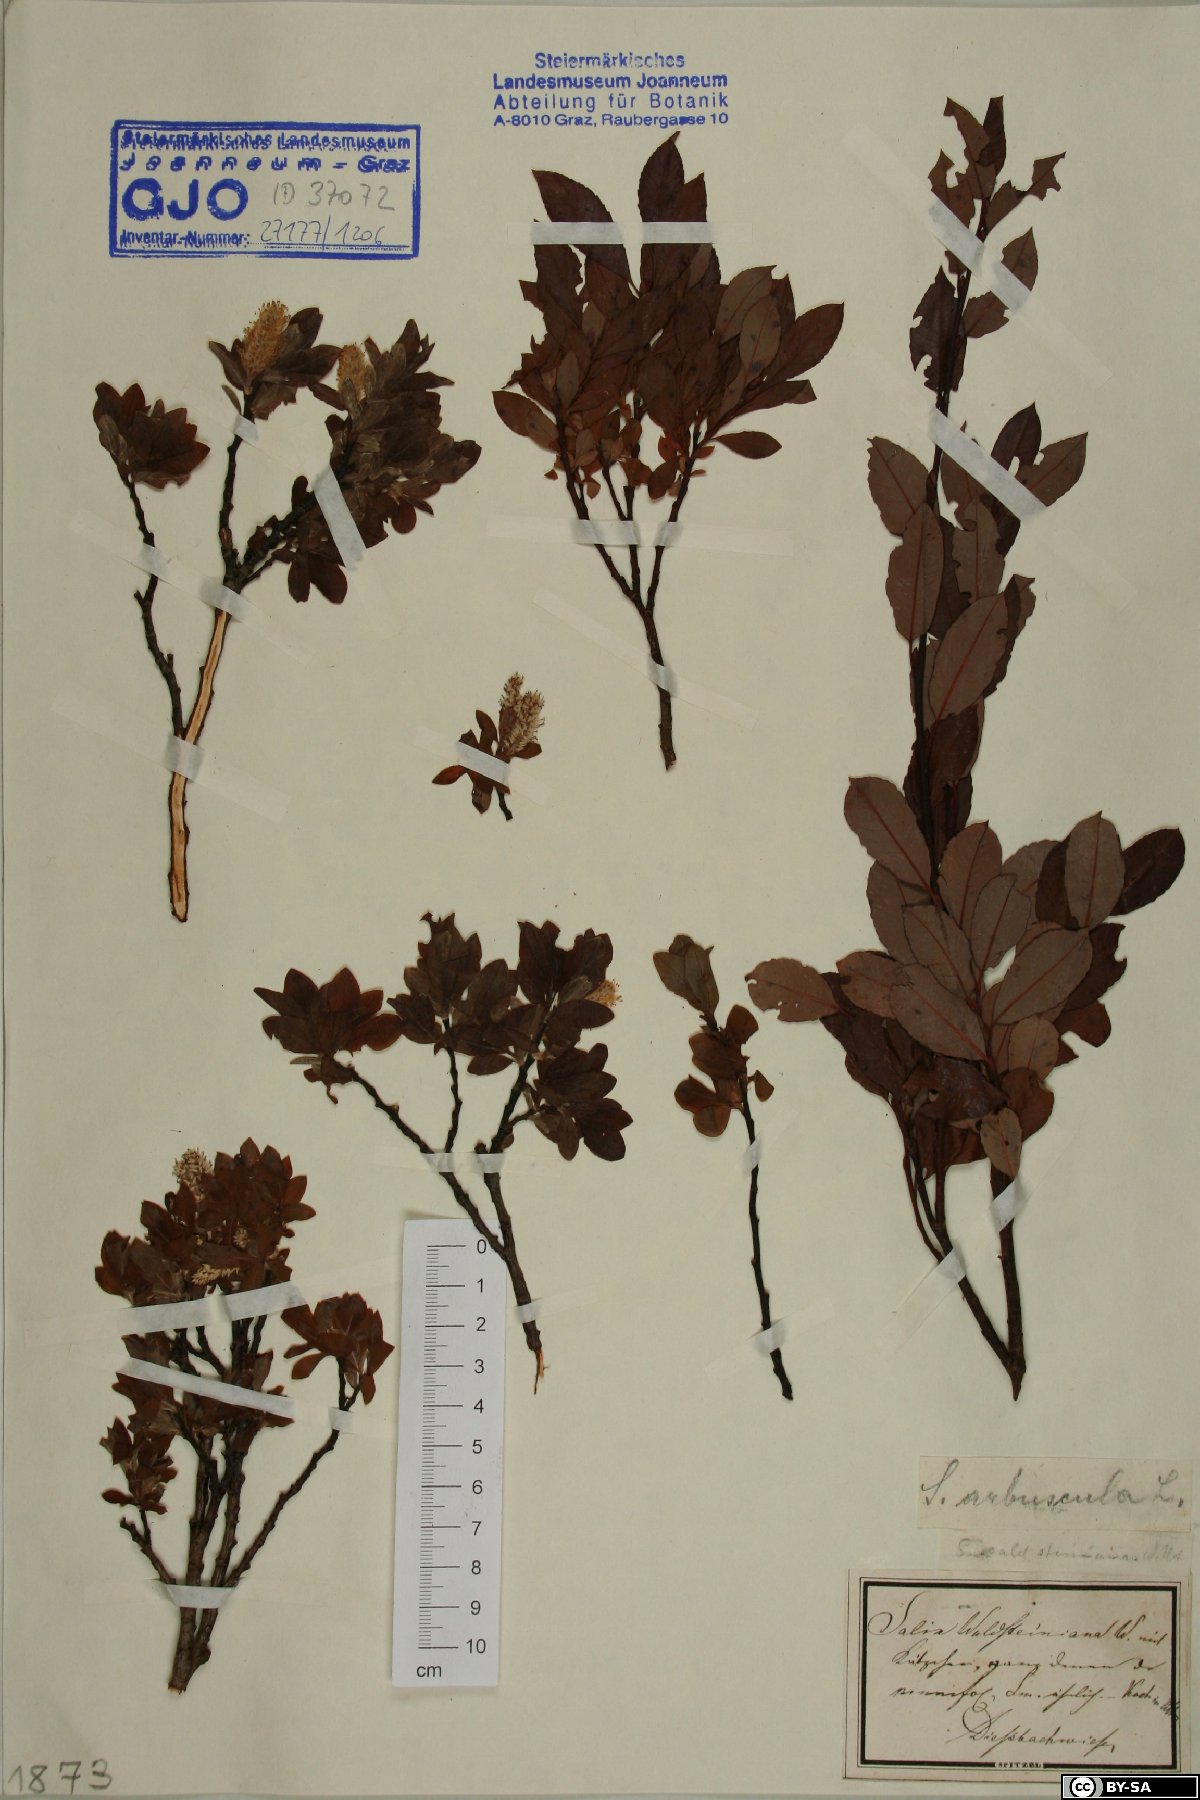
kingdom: Plantae
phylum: Tracheophyta
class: Magnoliopsida
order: Malpighiales
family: Salicaceae
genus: Salix
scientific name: Salix waldsteiniana
